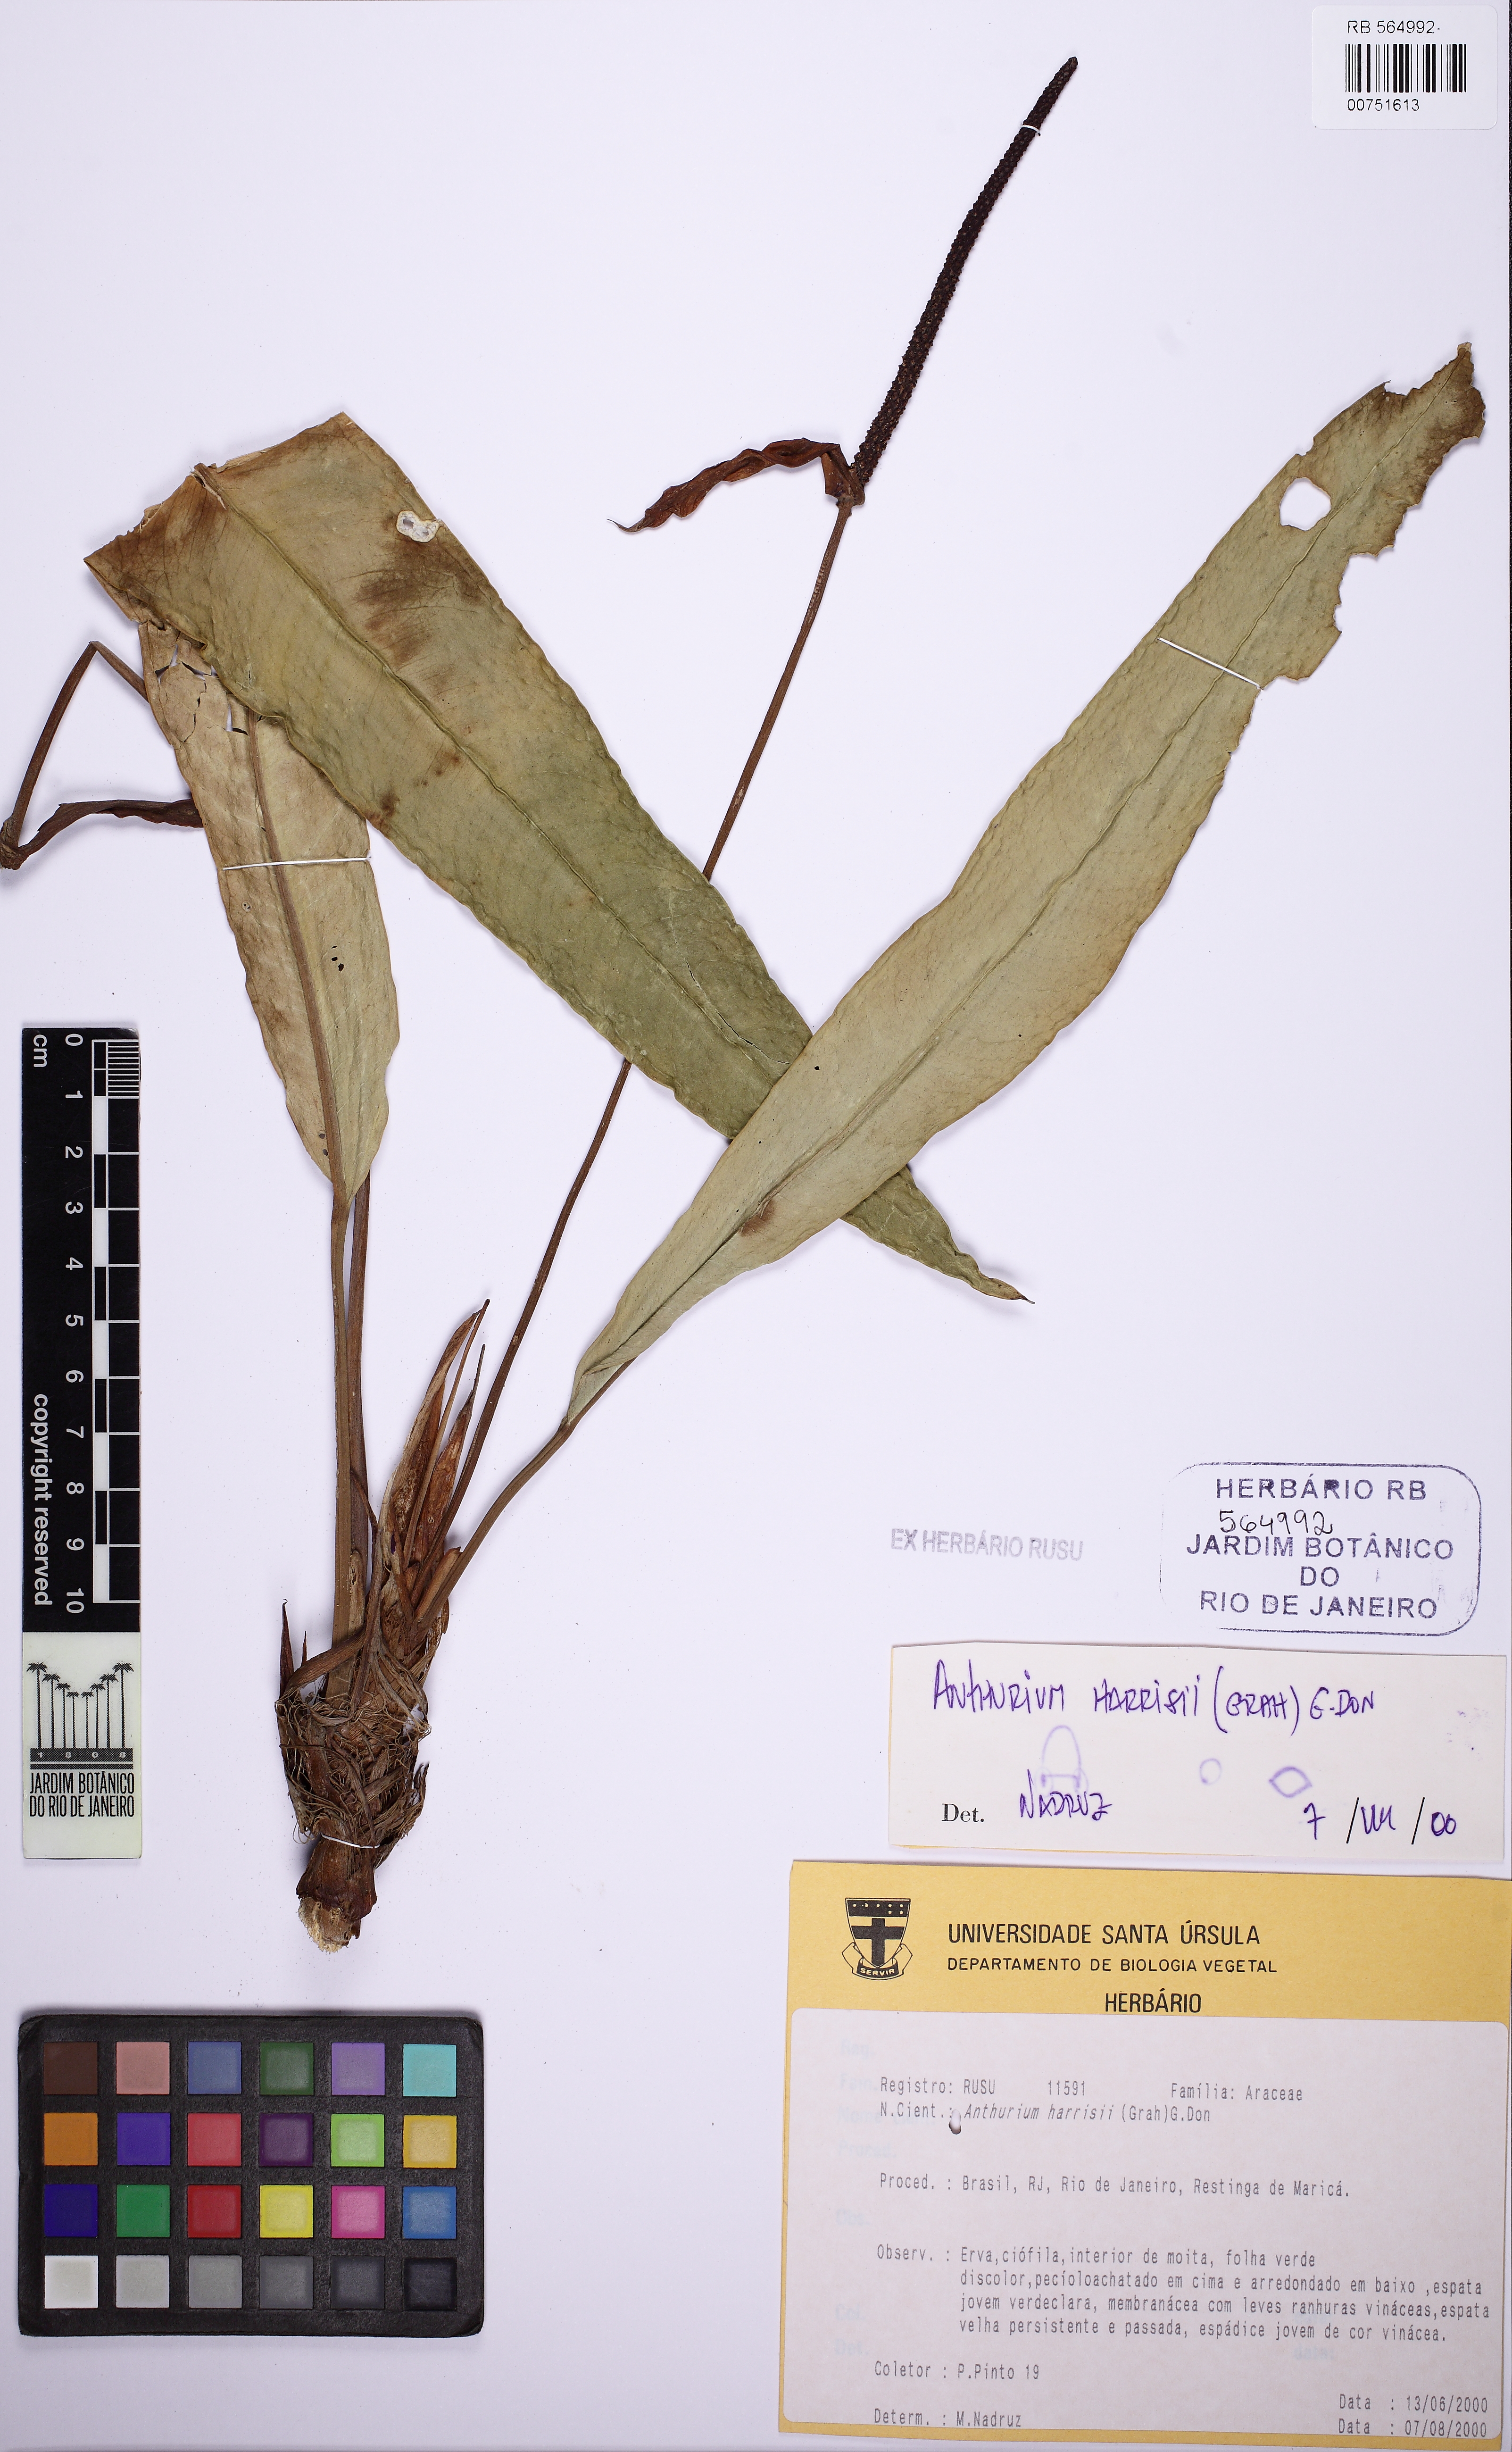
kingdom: Plantae
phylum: Tracheophyta
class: Liliopsida
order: Alismatales
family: Araceae
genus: Anthurium
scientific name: Anthurium harrisii
